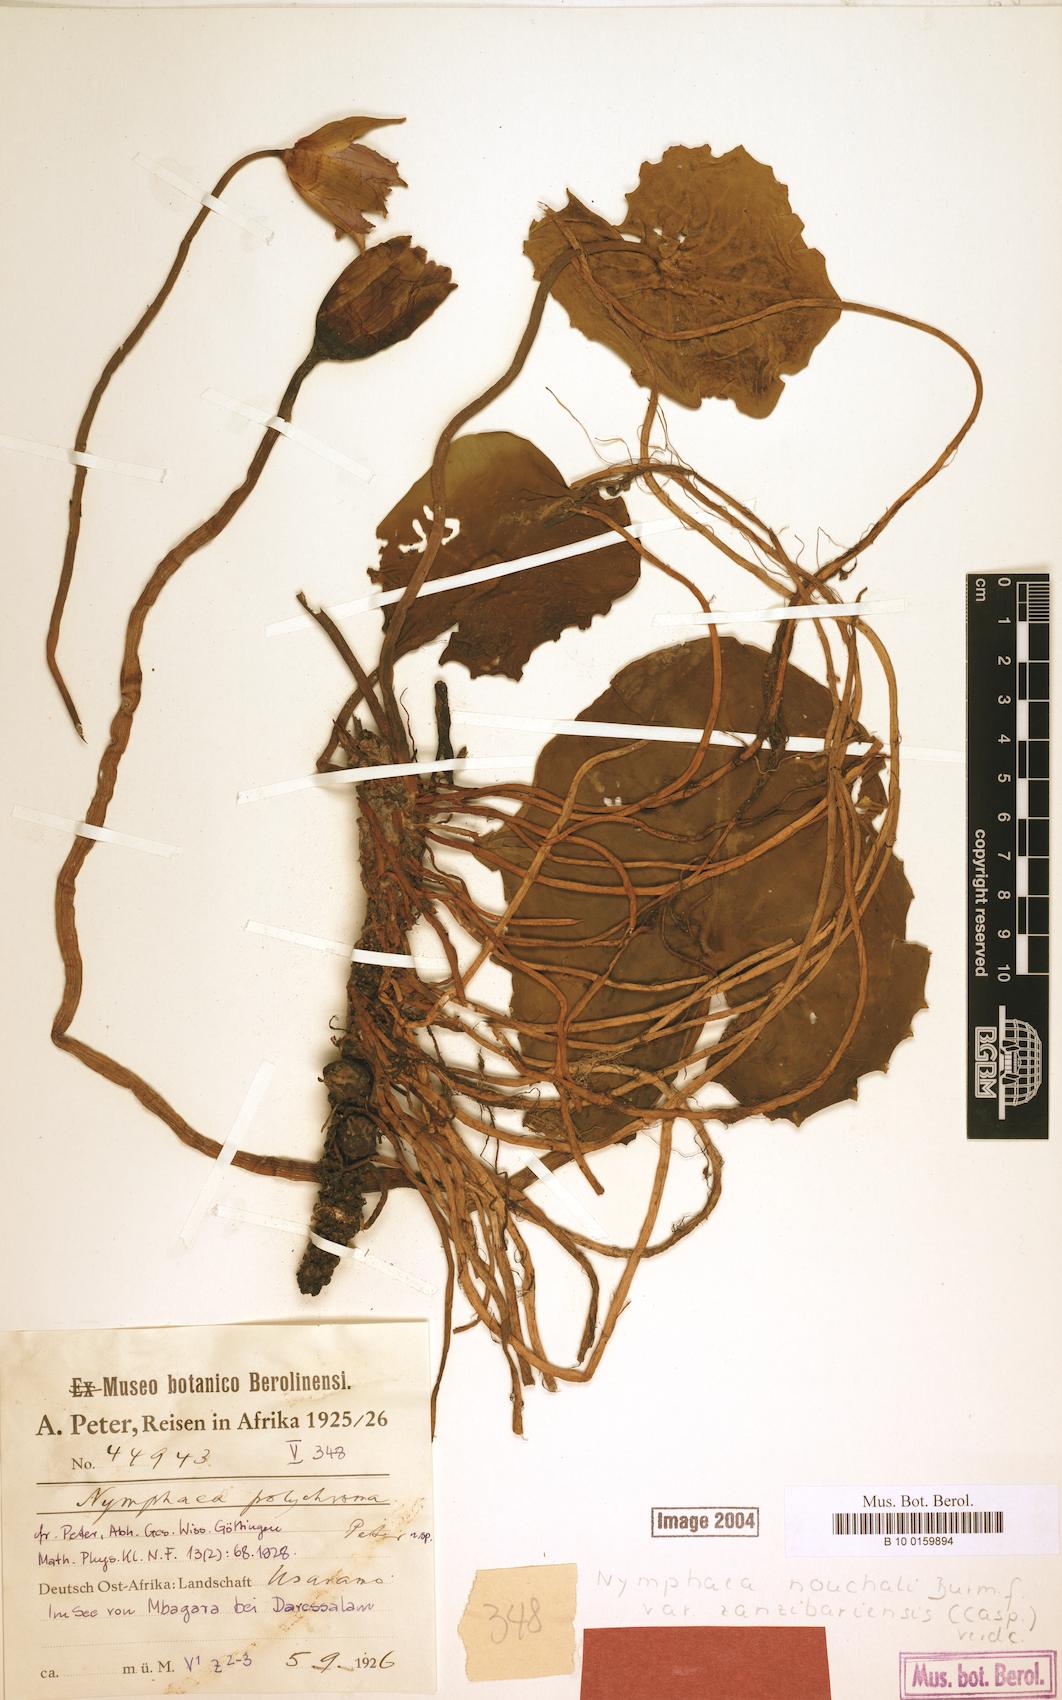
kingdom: Plantae
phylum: Tracheophyta
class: Magnoliopsida
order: Nymphaeales
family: Nymphaeaceae
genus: Nymphaea
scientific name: Nymphaea nouchali
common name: Blue lotus
